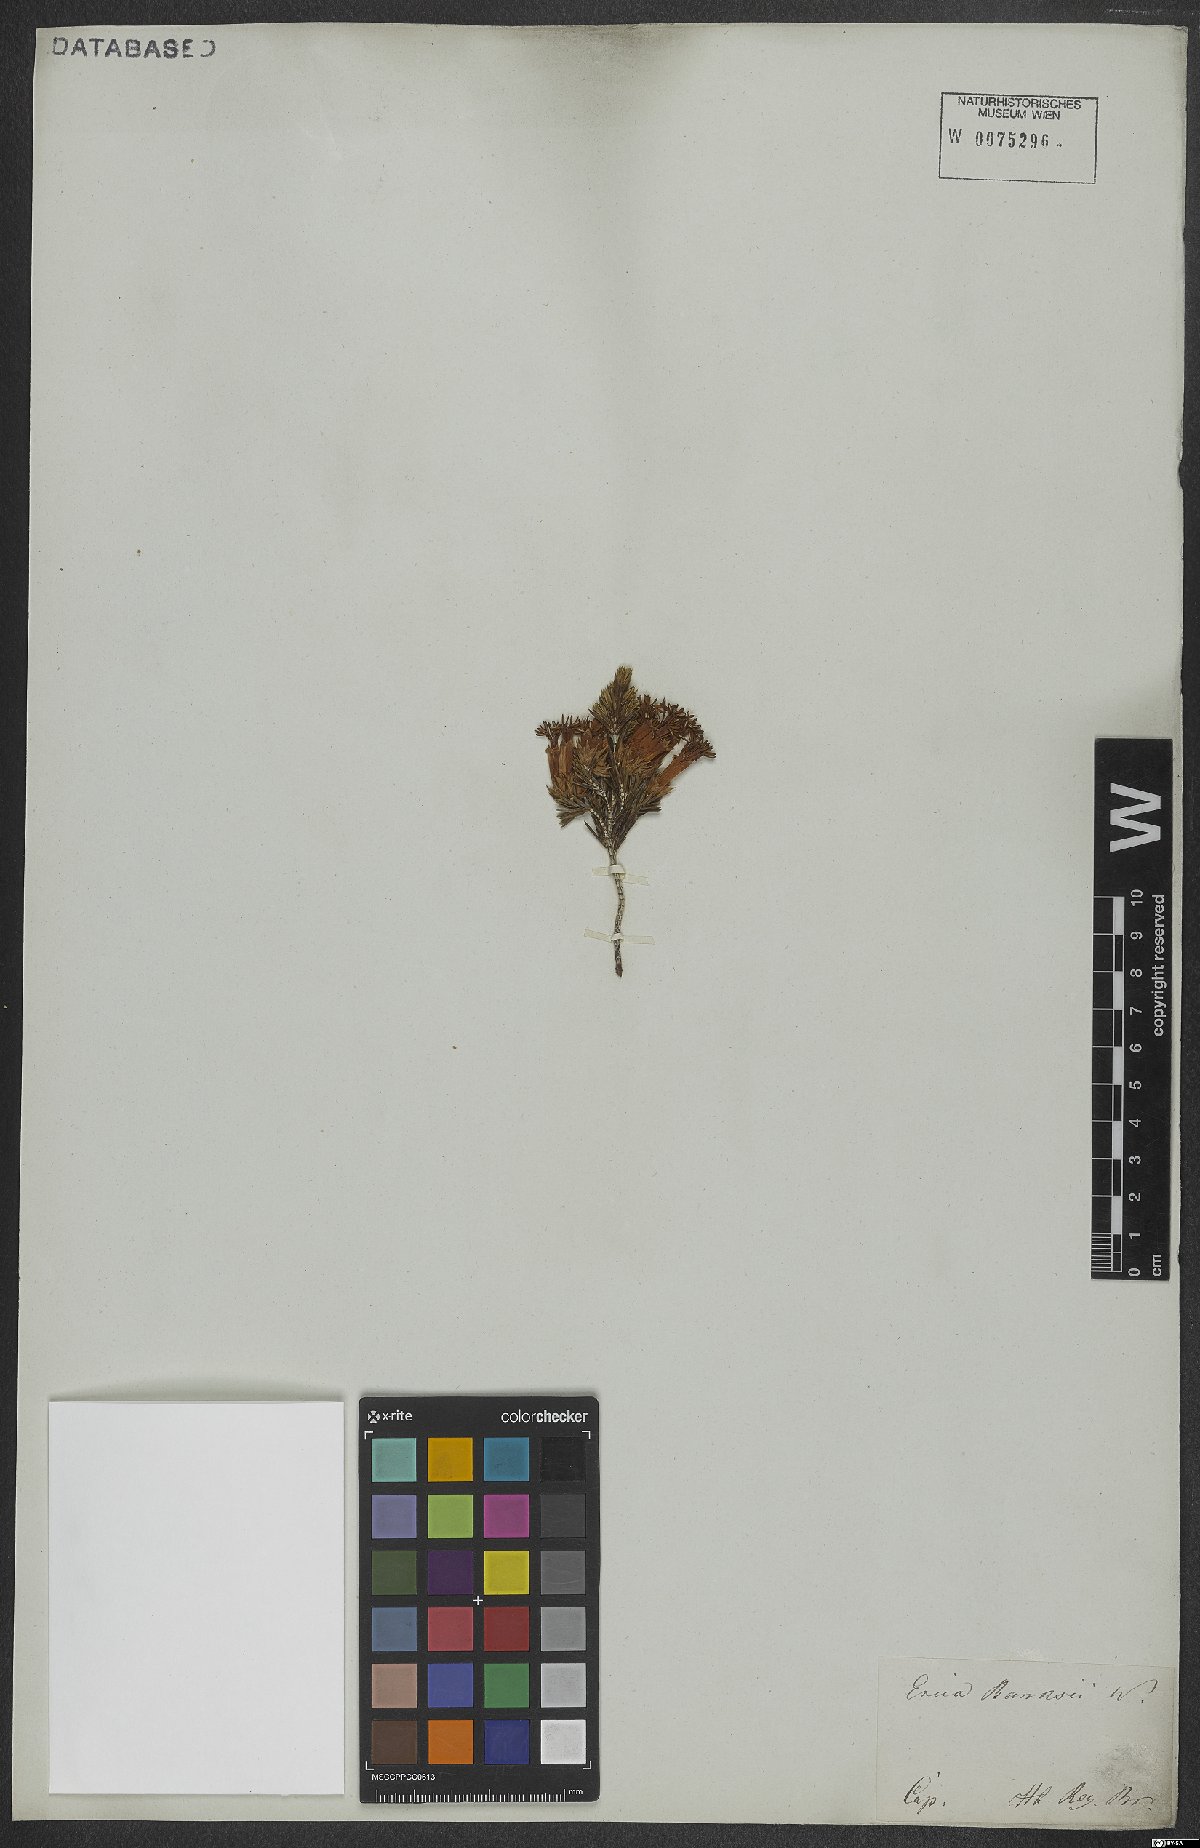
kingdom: Plantae
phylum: Tracheophyta
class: Magnoliopsida
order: Ericales
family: Ericaceae
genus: Erica
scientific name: Erica banksia
